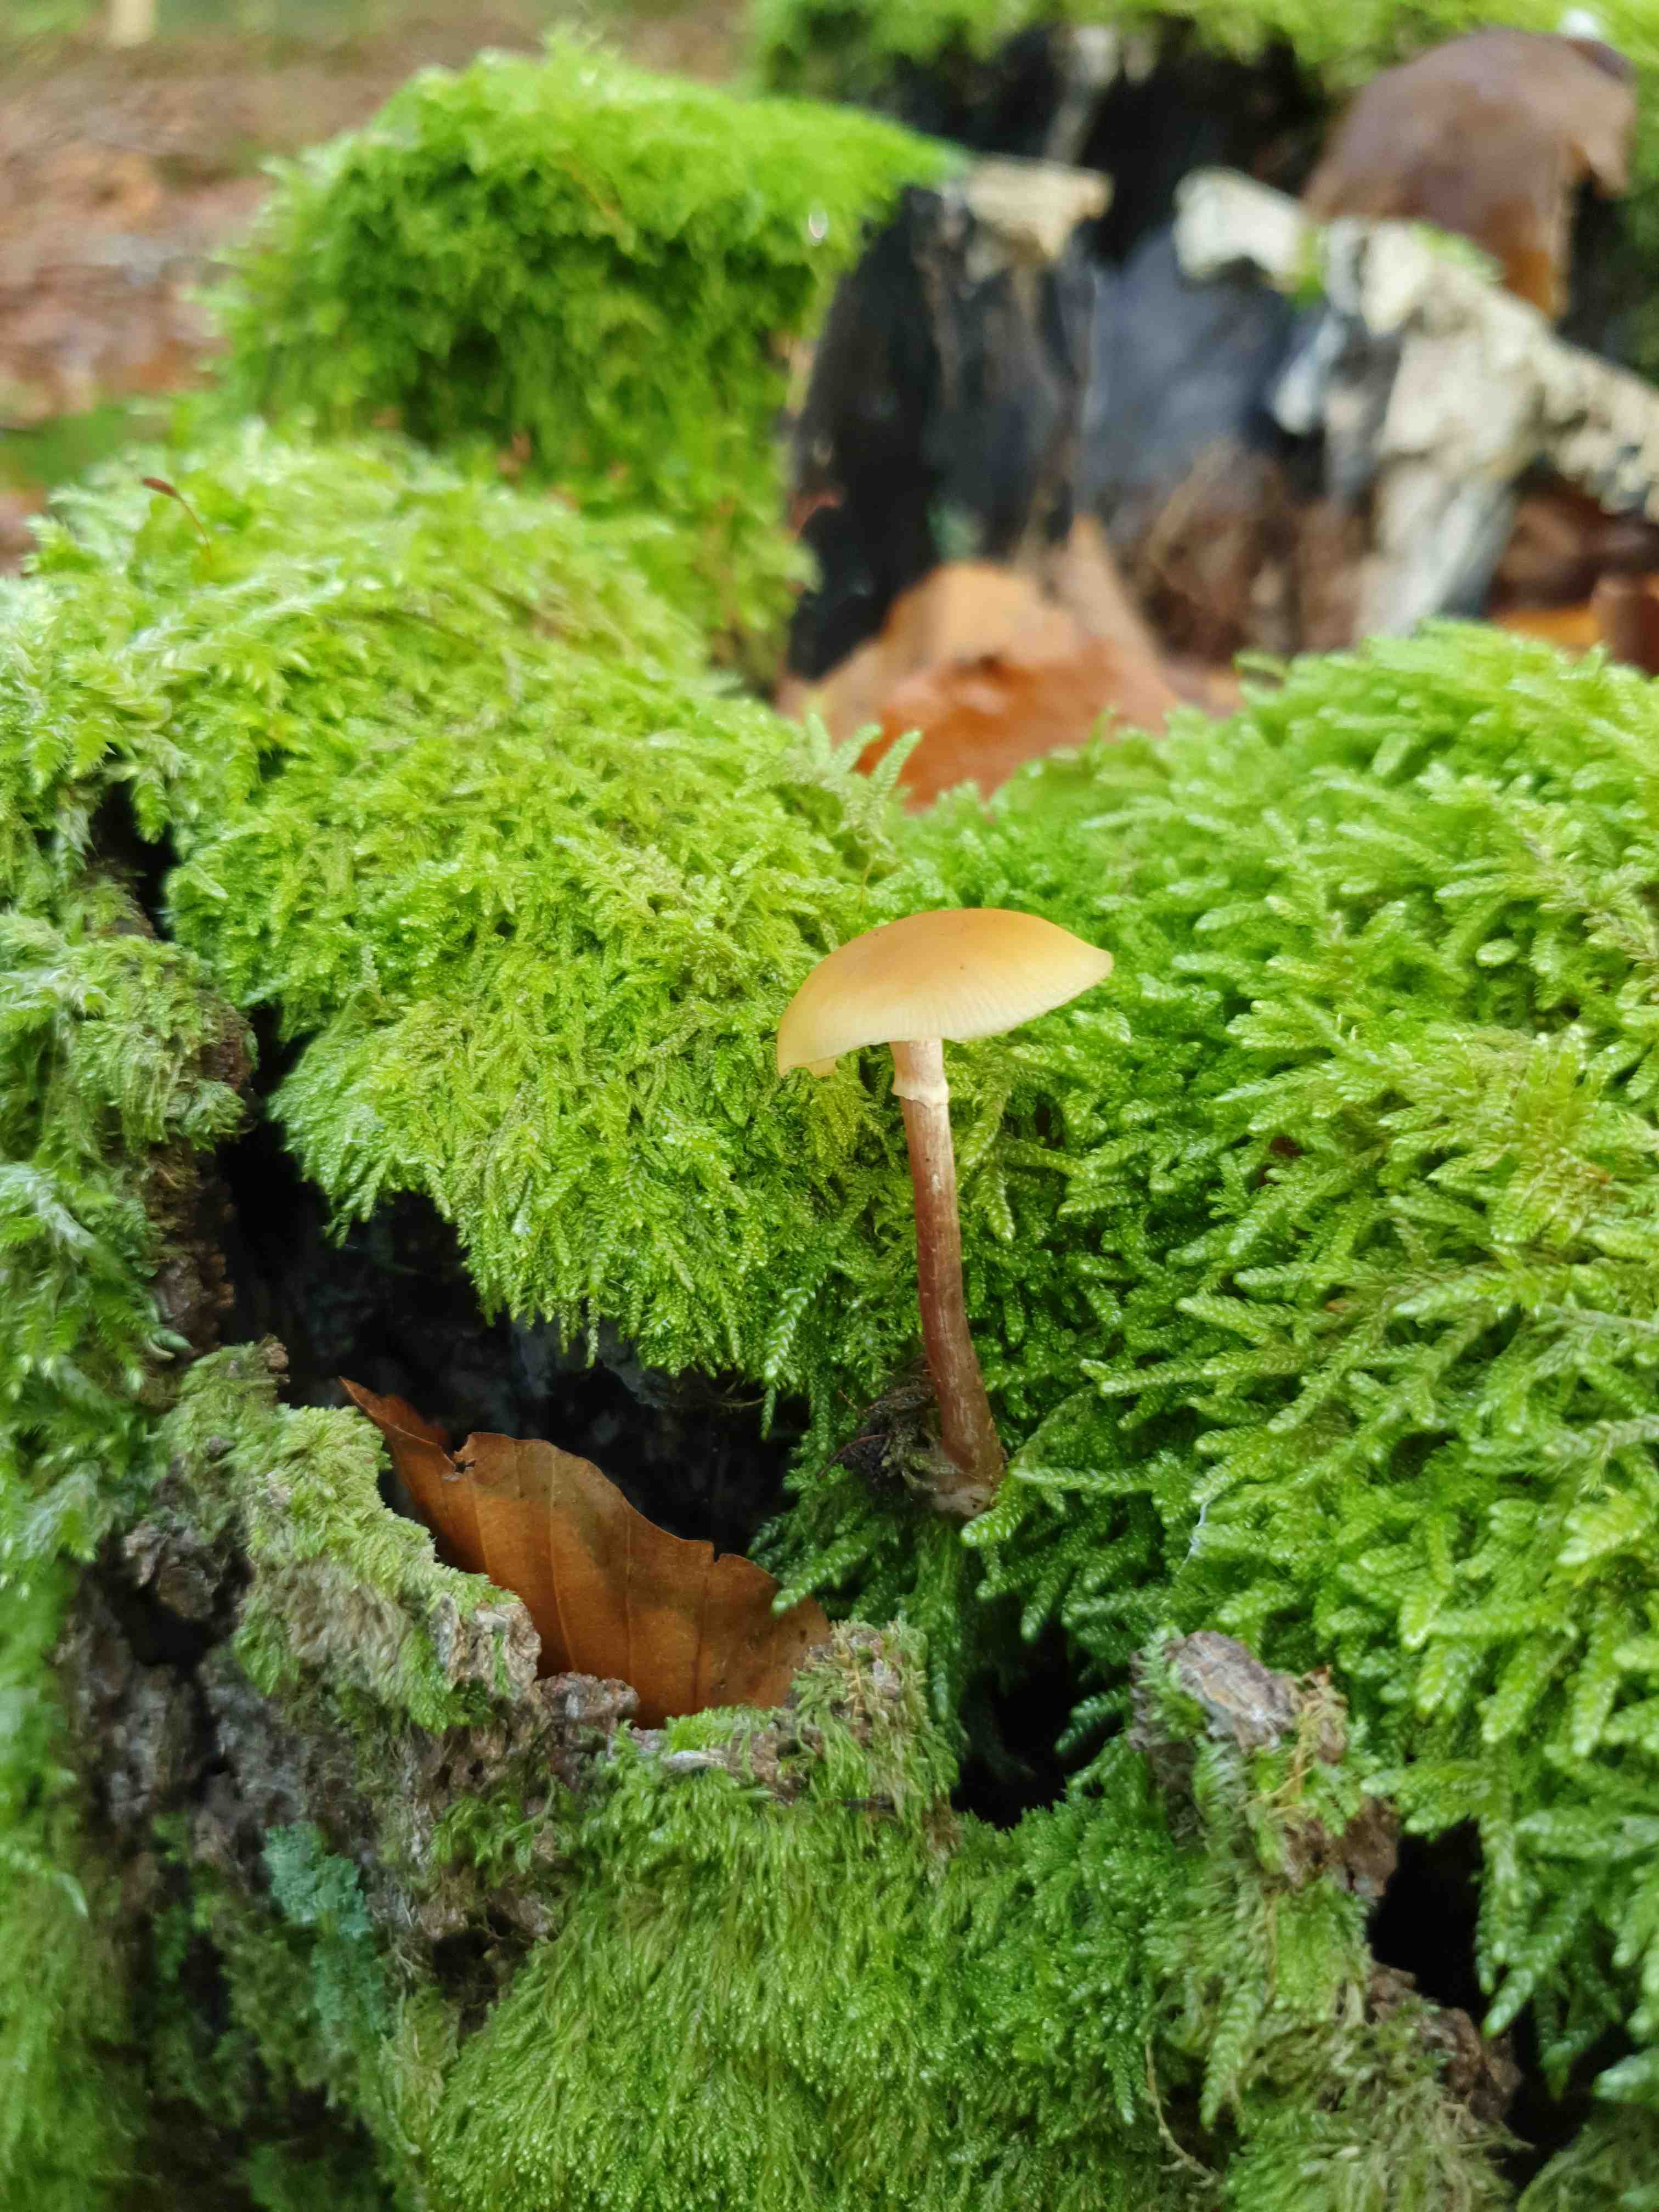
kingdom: Fungi
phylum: Basidiomycota
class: Agaricomycetes
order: Agaricales
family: Hymenogastraceae
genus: Galerina
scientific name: Galerina marginata
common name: randbæltet hjelmhat
